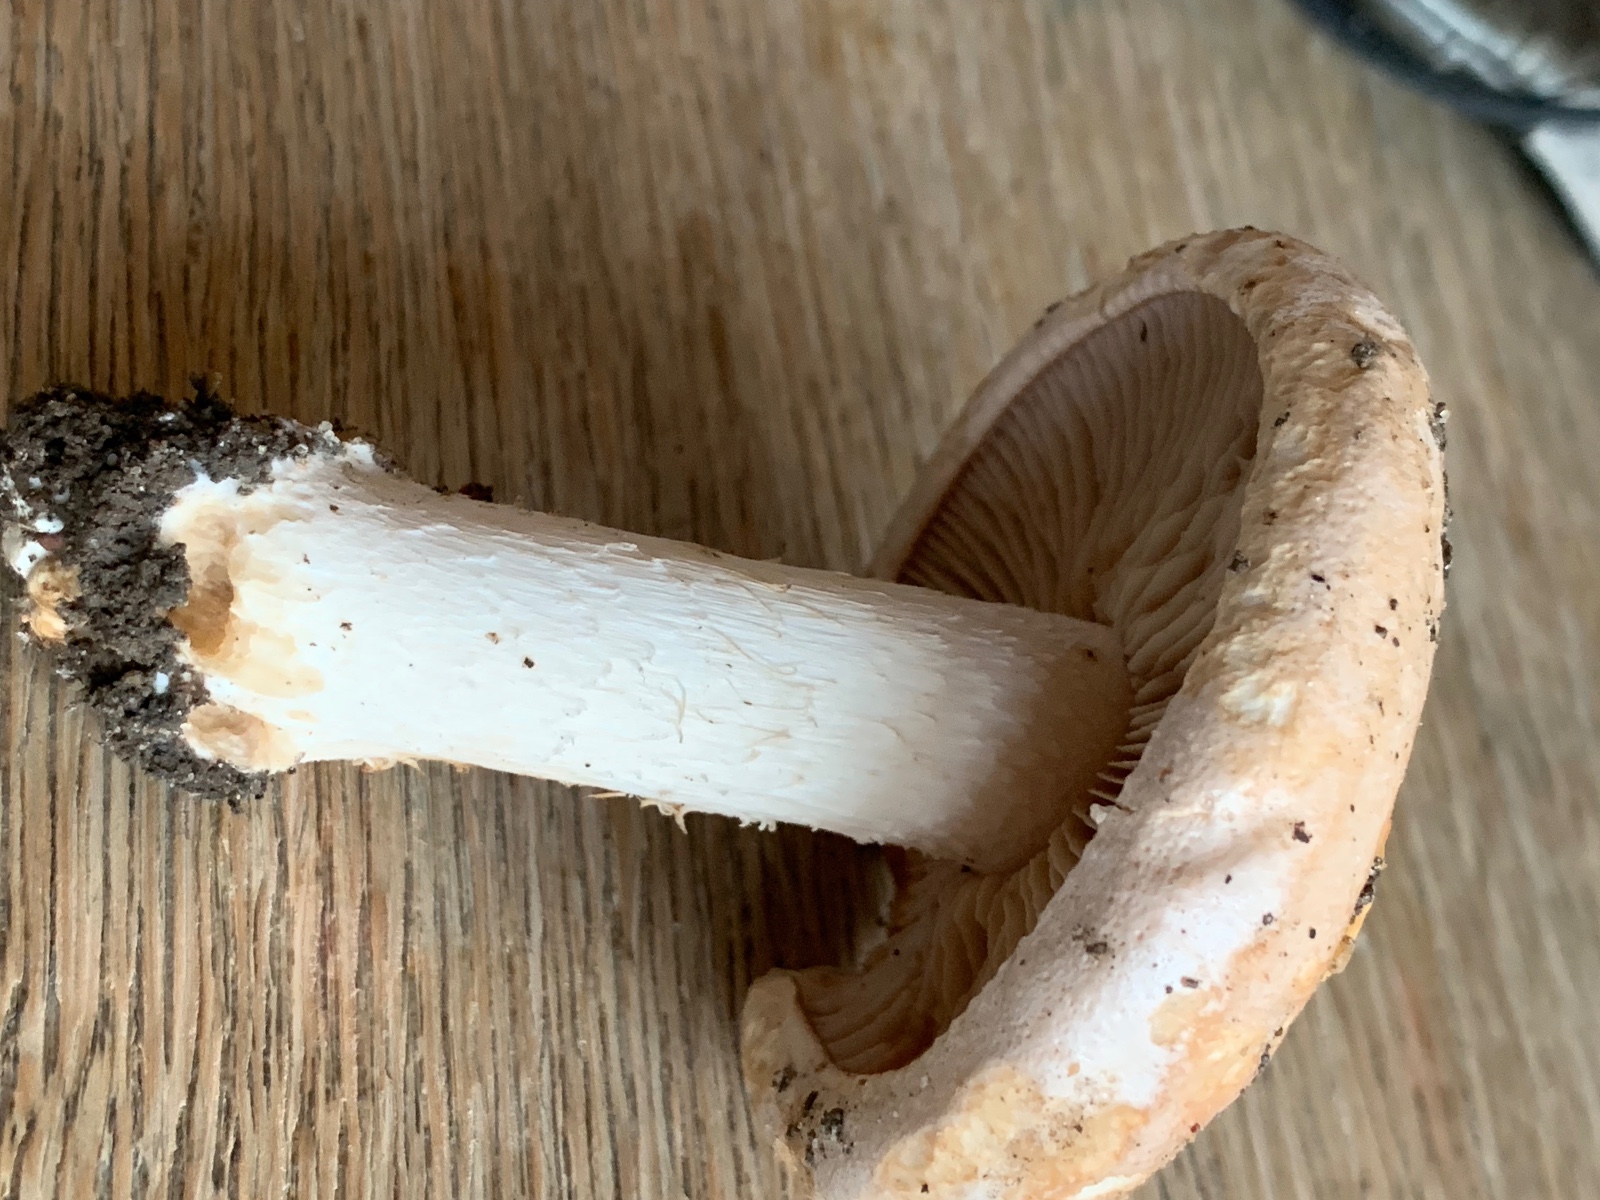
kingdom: Fungi
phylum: Basidiomycota
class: Agaricomycetes
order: Agaricales
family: Hymenogastraceae
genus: Hebeloma
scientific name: Hebeloma sinapizans
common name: ræddike-tåreblad
